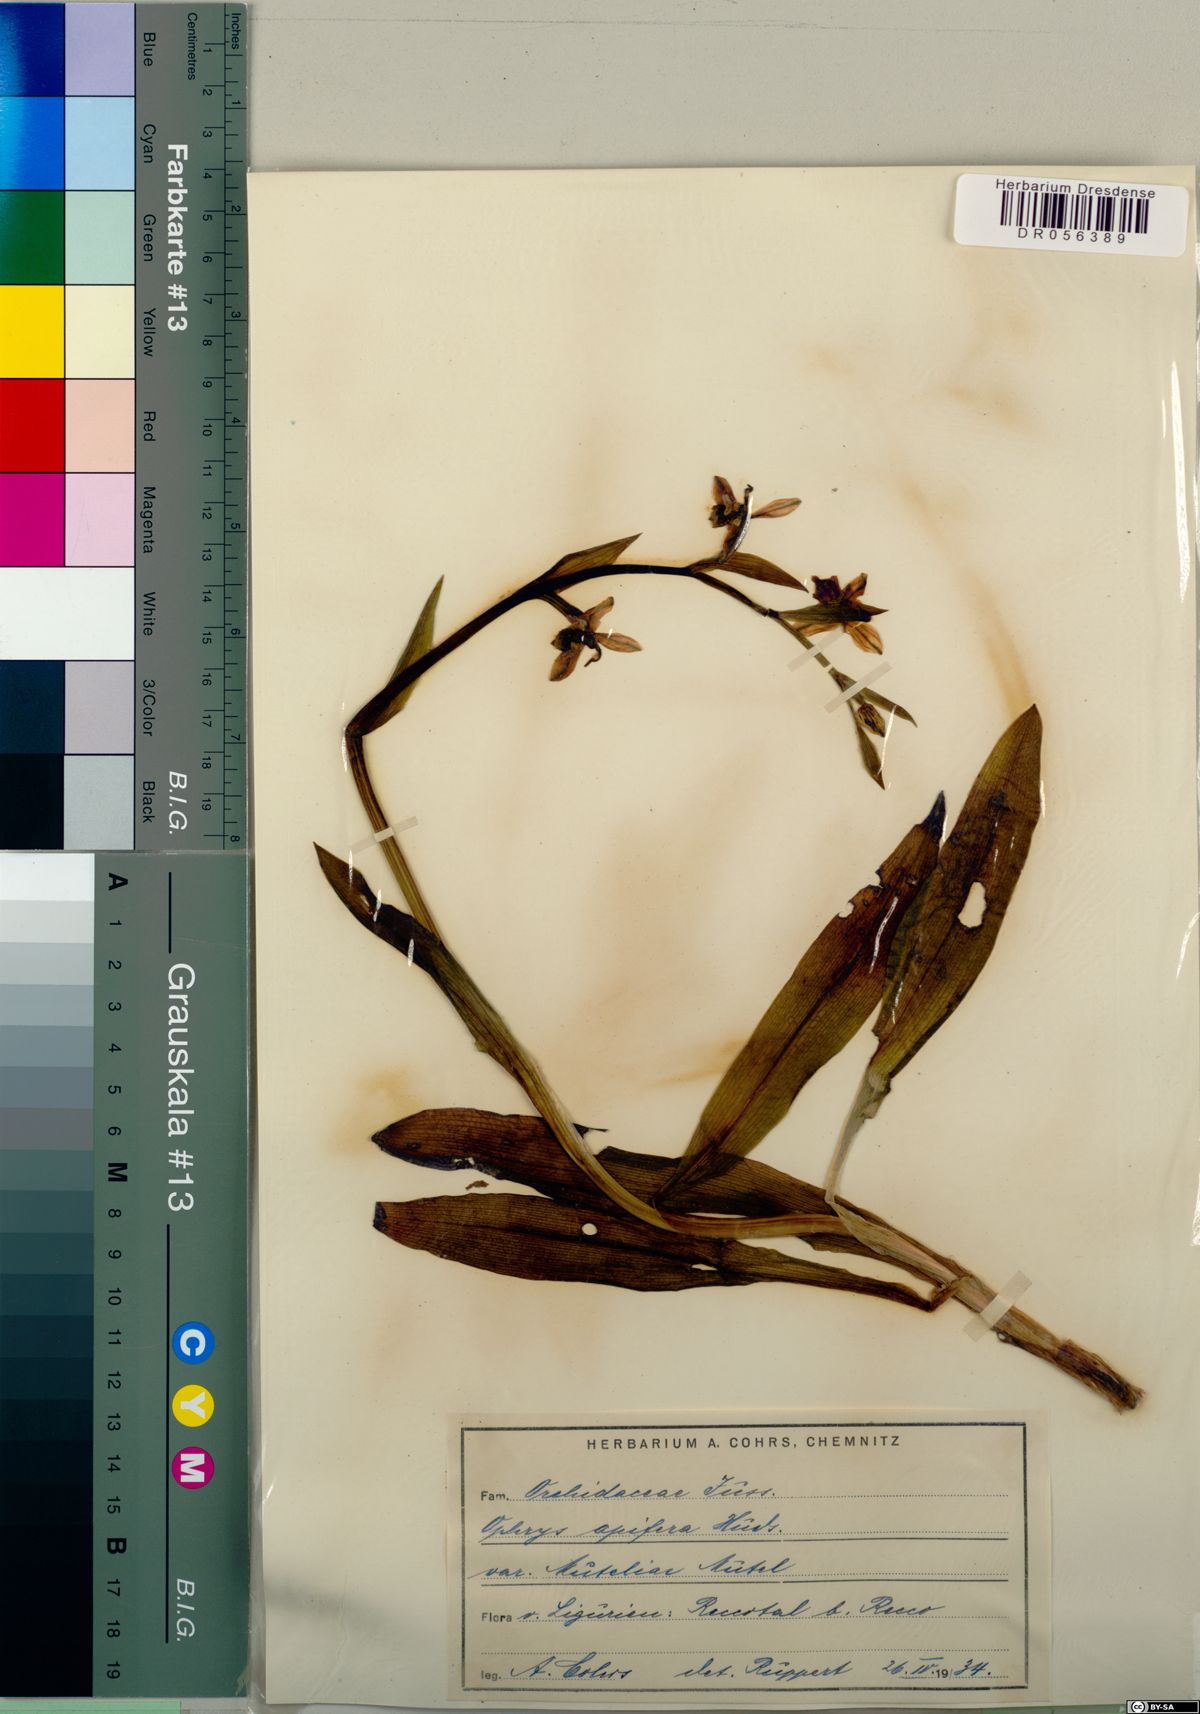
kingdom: Plantae
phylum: Tracheophyta
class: Liliopsida
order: Asparagales
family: Orchidaceae
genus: Ophrys
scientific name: Ophrys apifera
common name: Bee orchid
